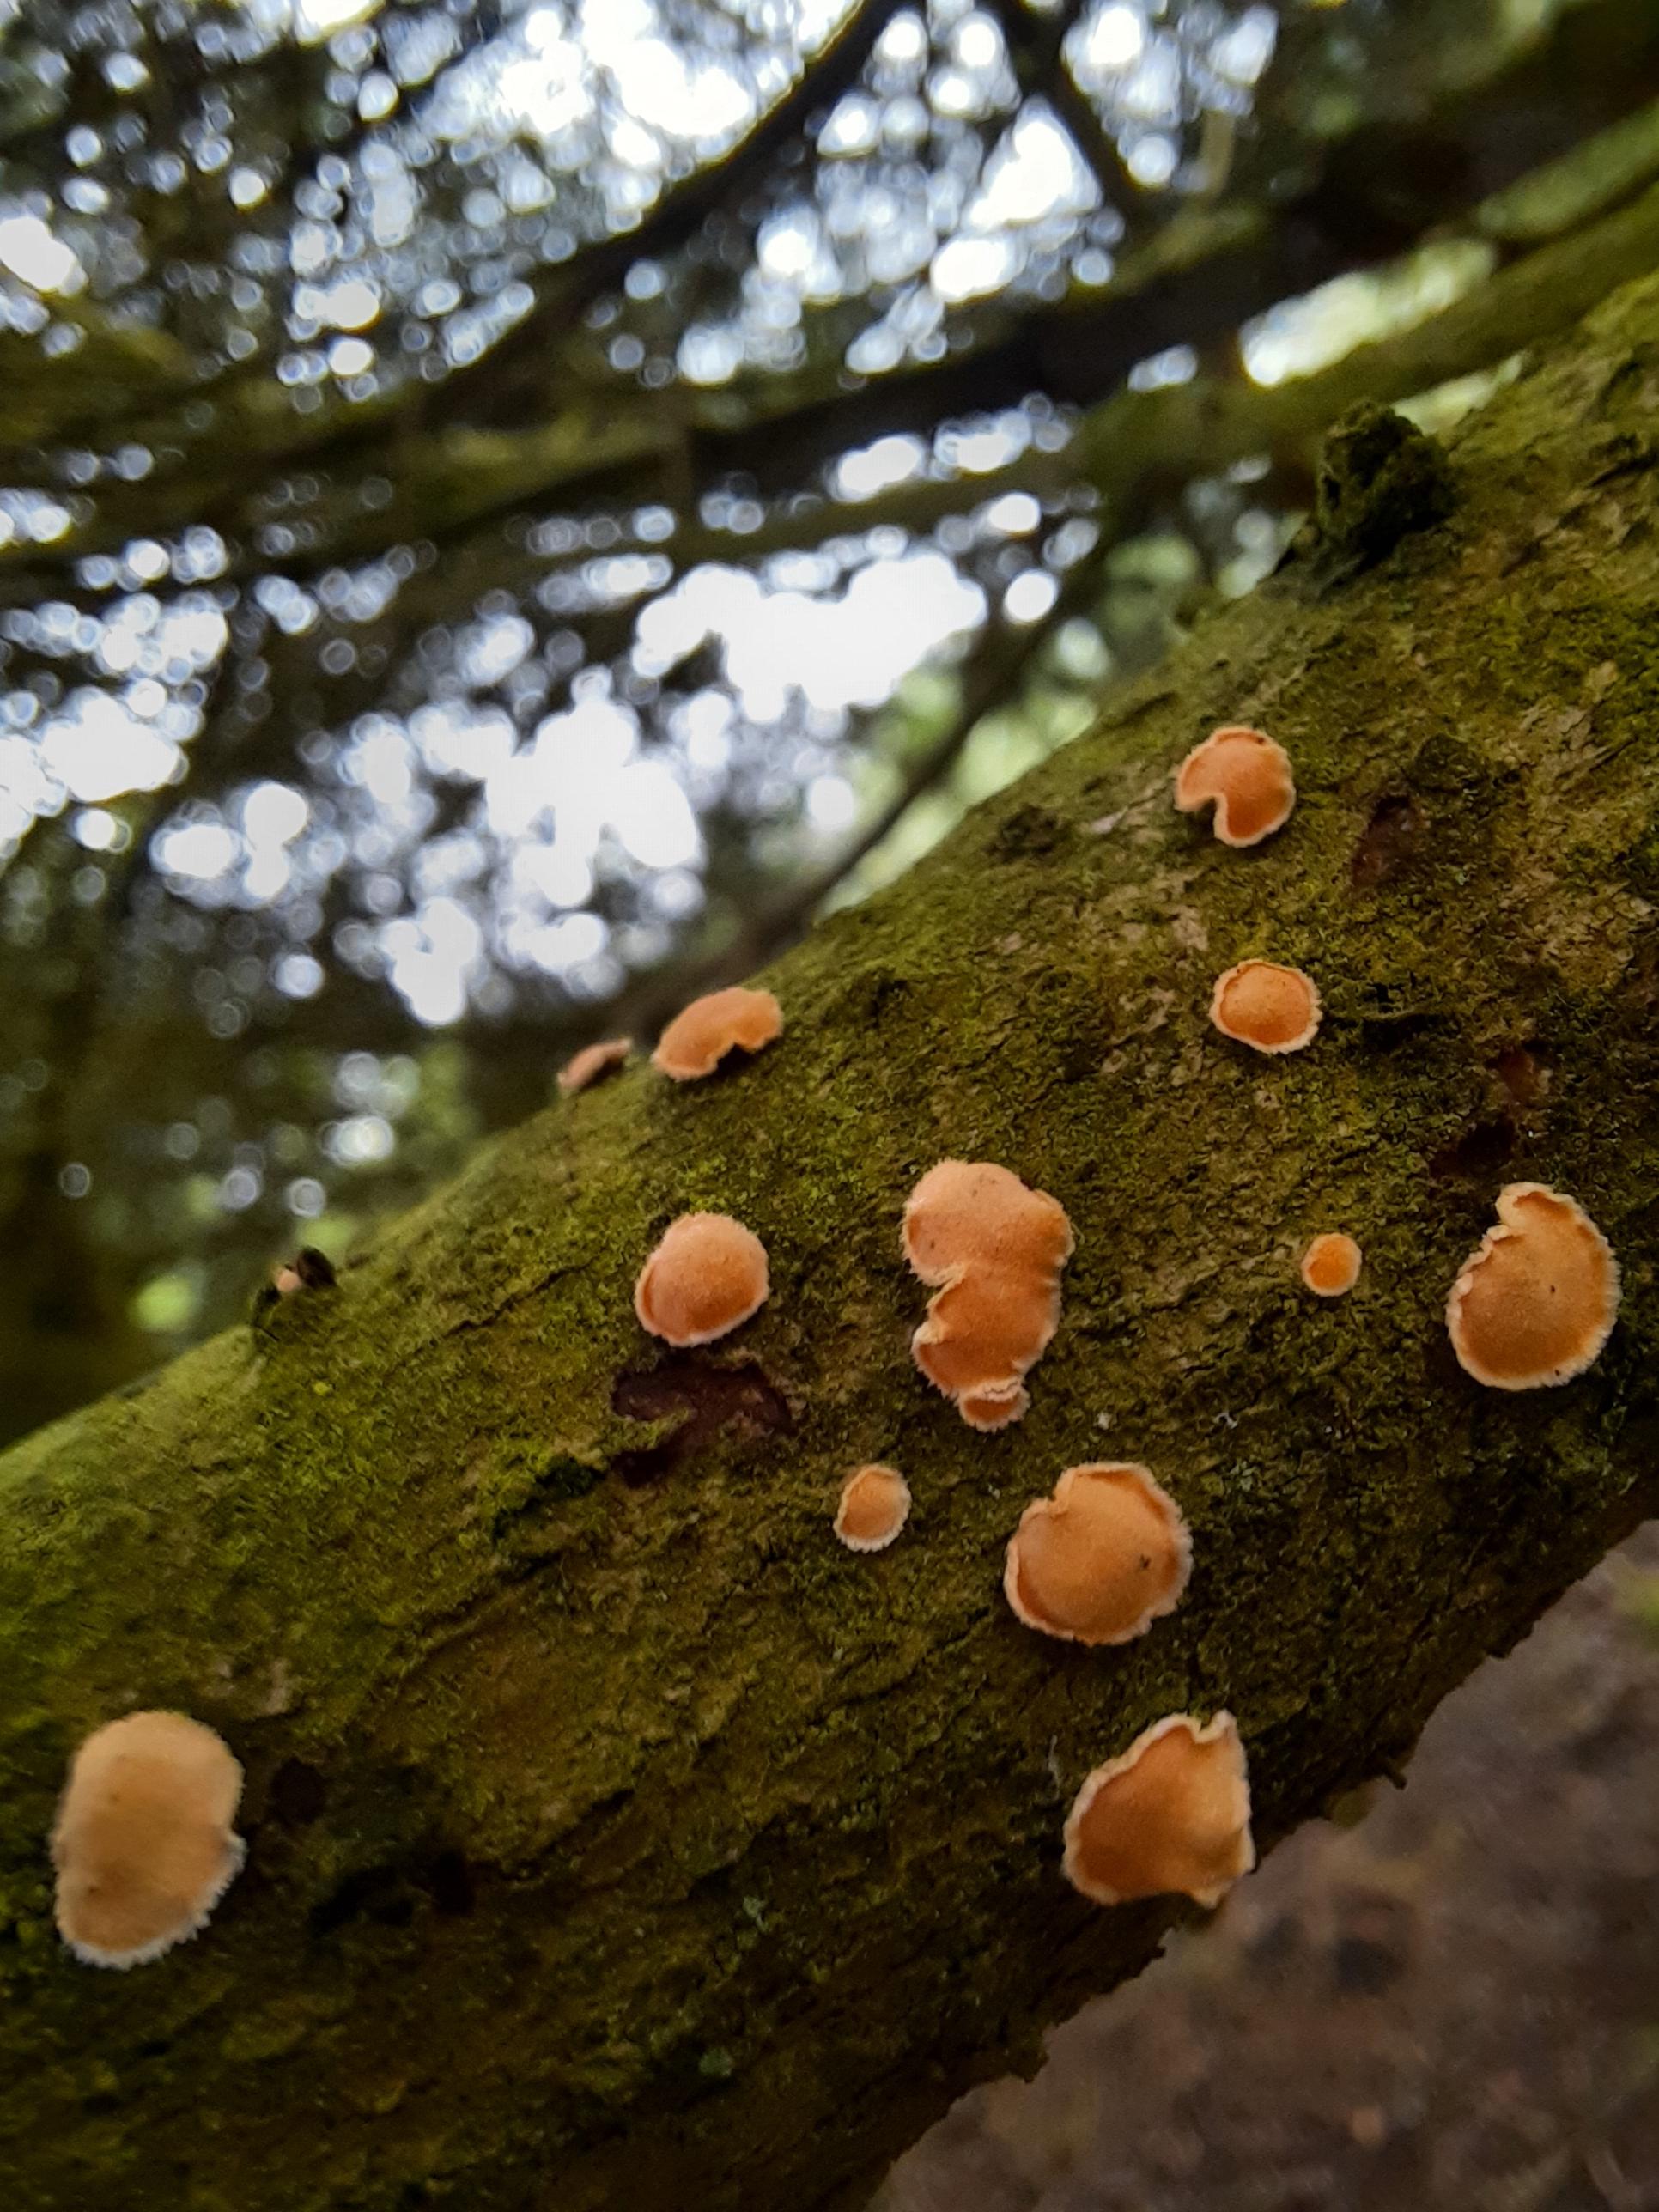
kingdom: Fungi
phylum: Basidiomycota
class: Agaricomycetes
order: Russulales
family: Stereaceae
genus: Aleurodiscus
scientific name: Aleurodiscus amorphus
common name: orange skiveskorpe
